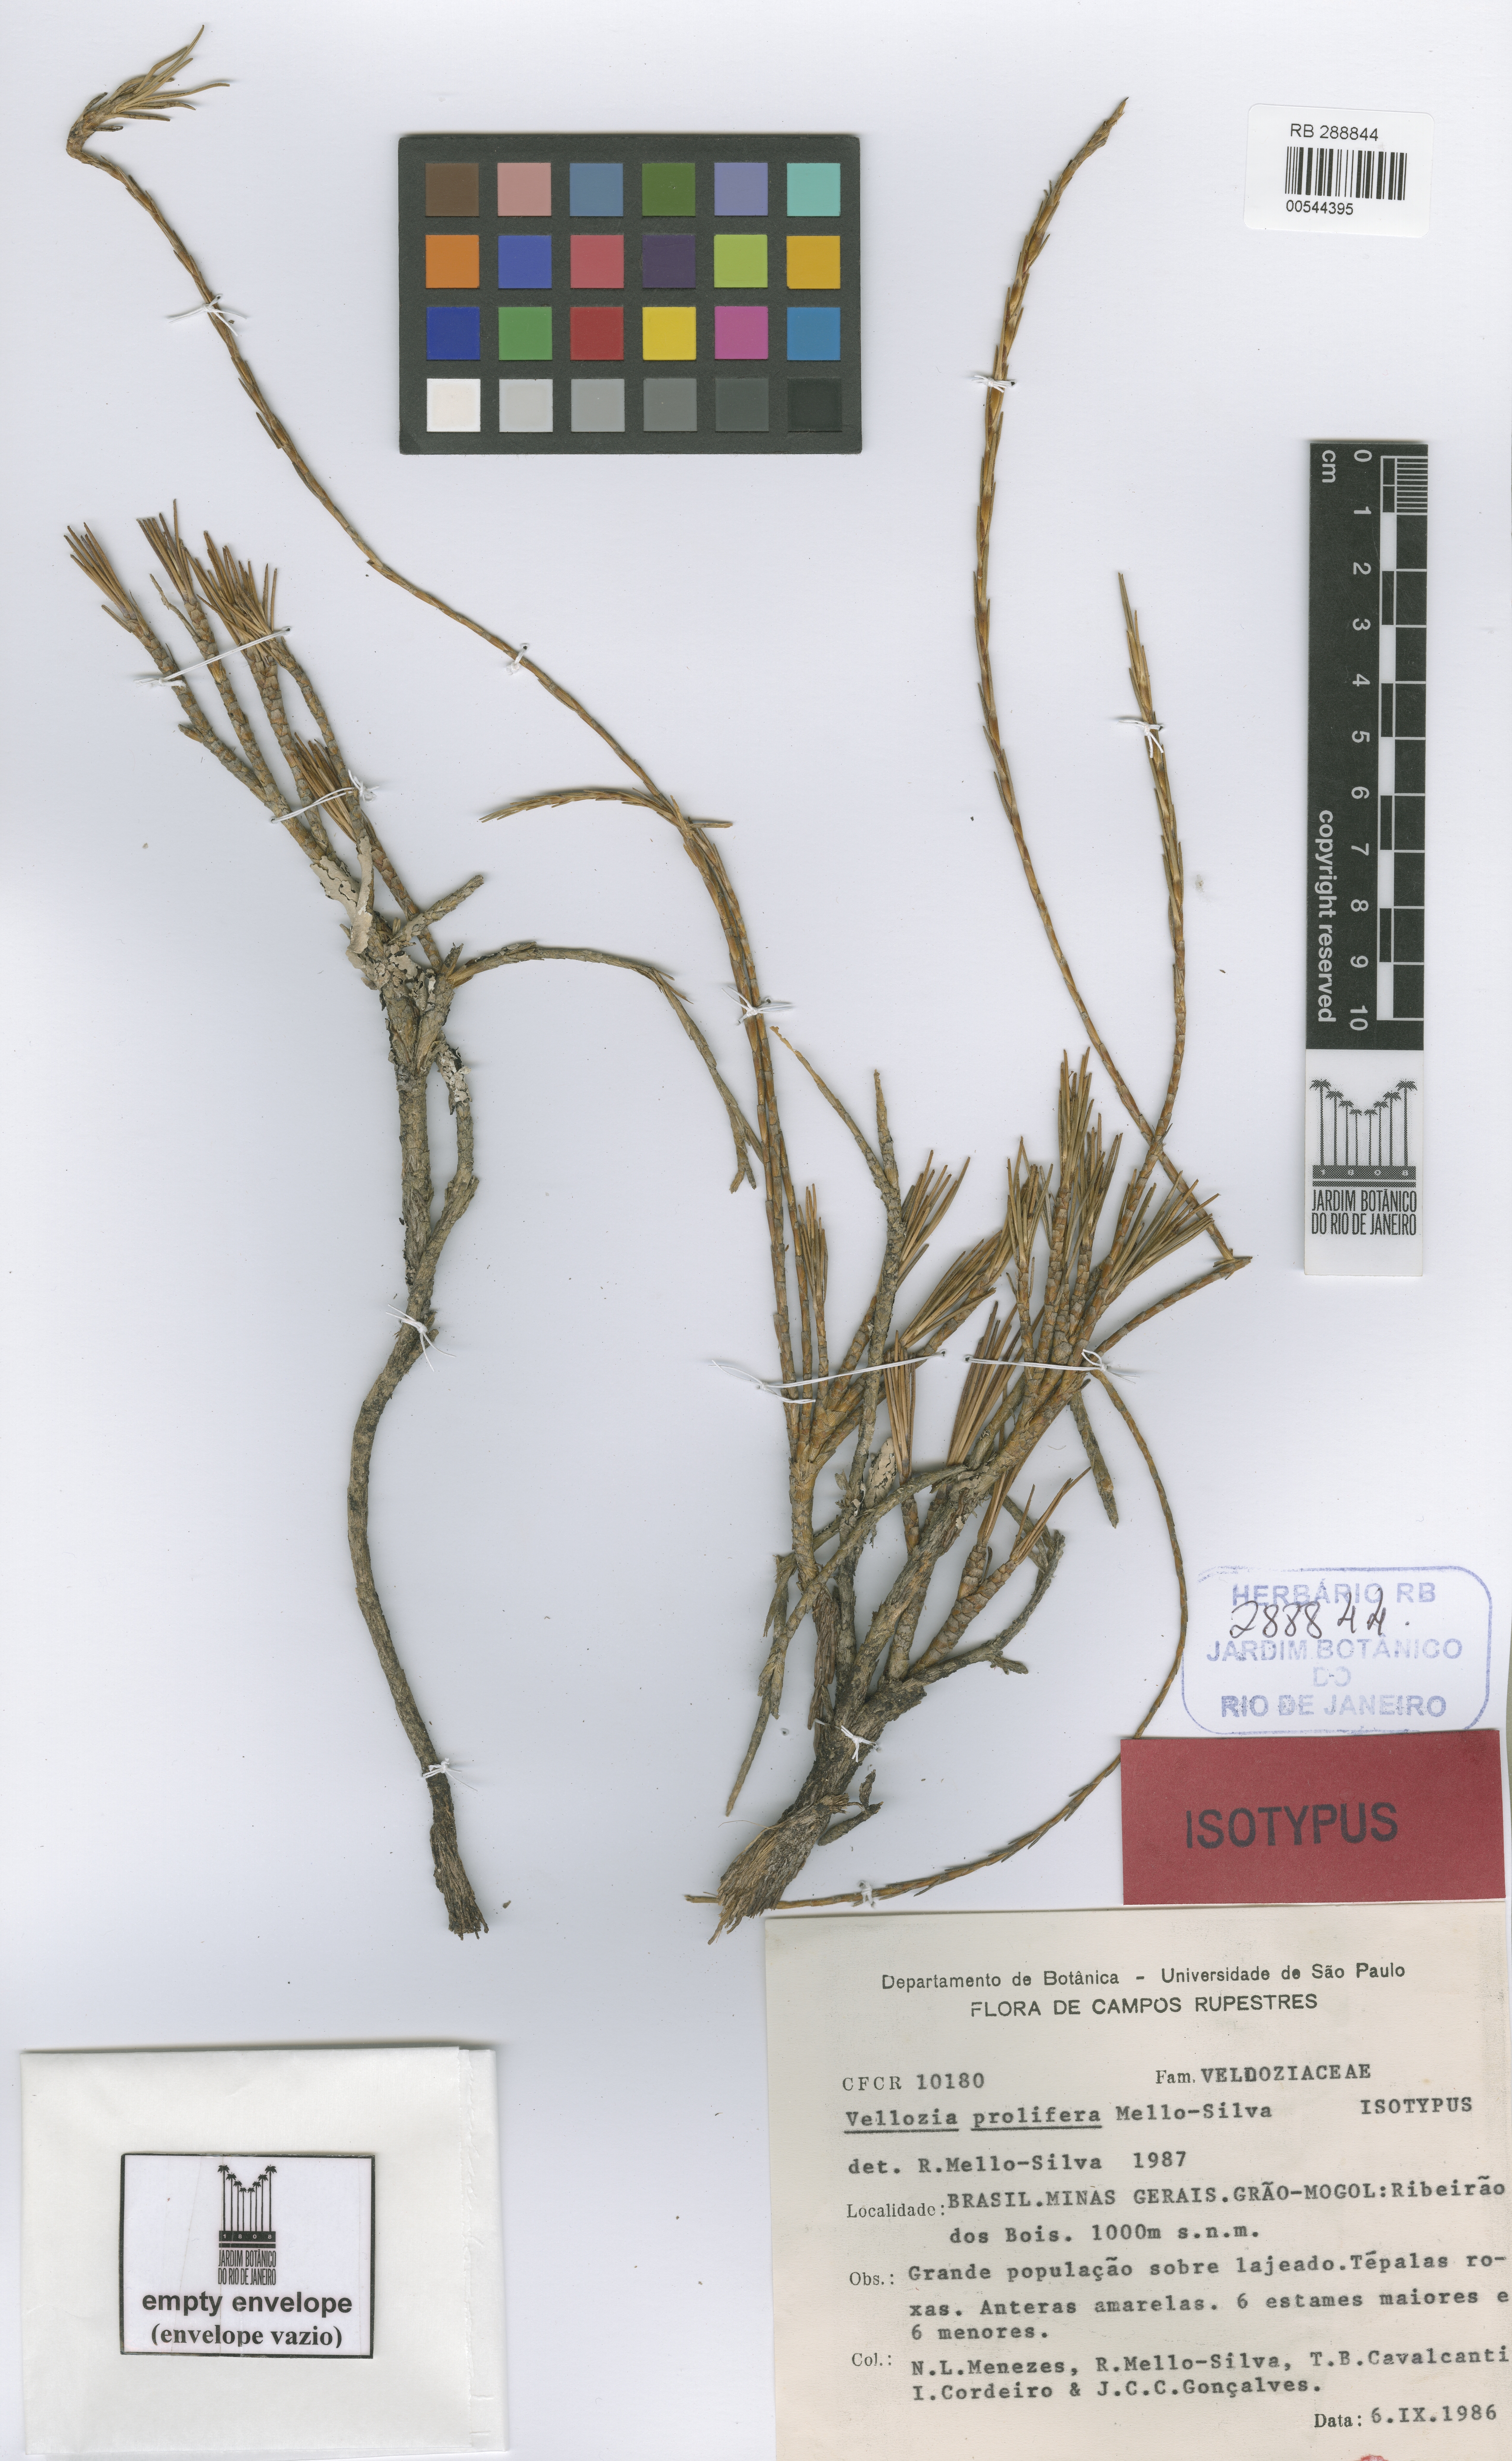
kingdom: Plantae
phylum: Tracheophyta
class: Liliopsida
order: Pandanales
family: Velloziaceae
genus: Vellozia
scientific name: Vellozia prolifera
